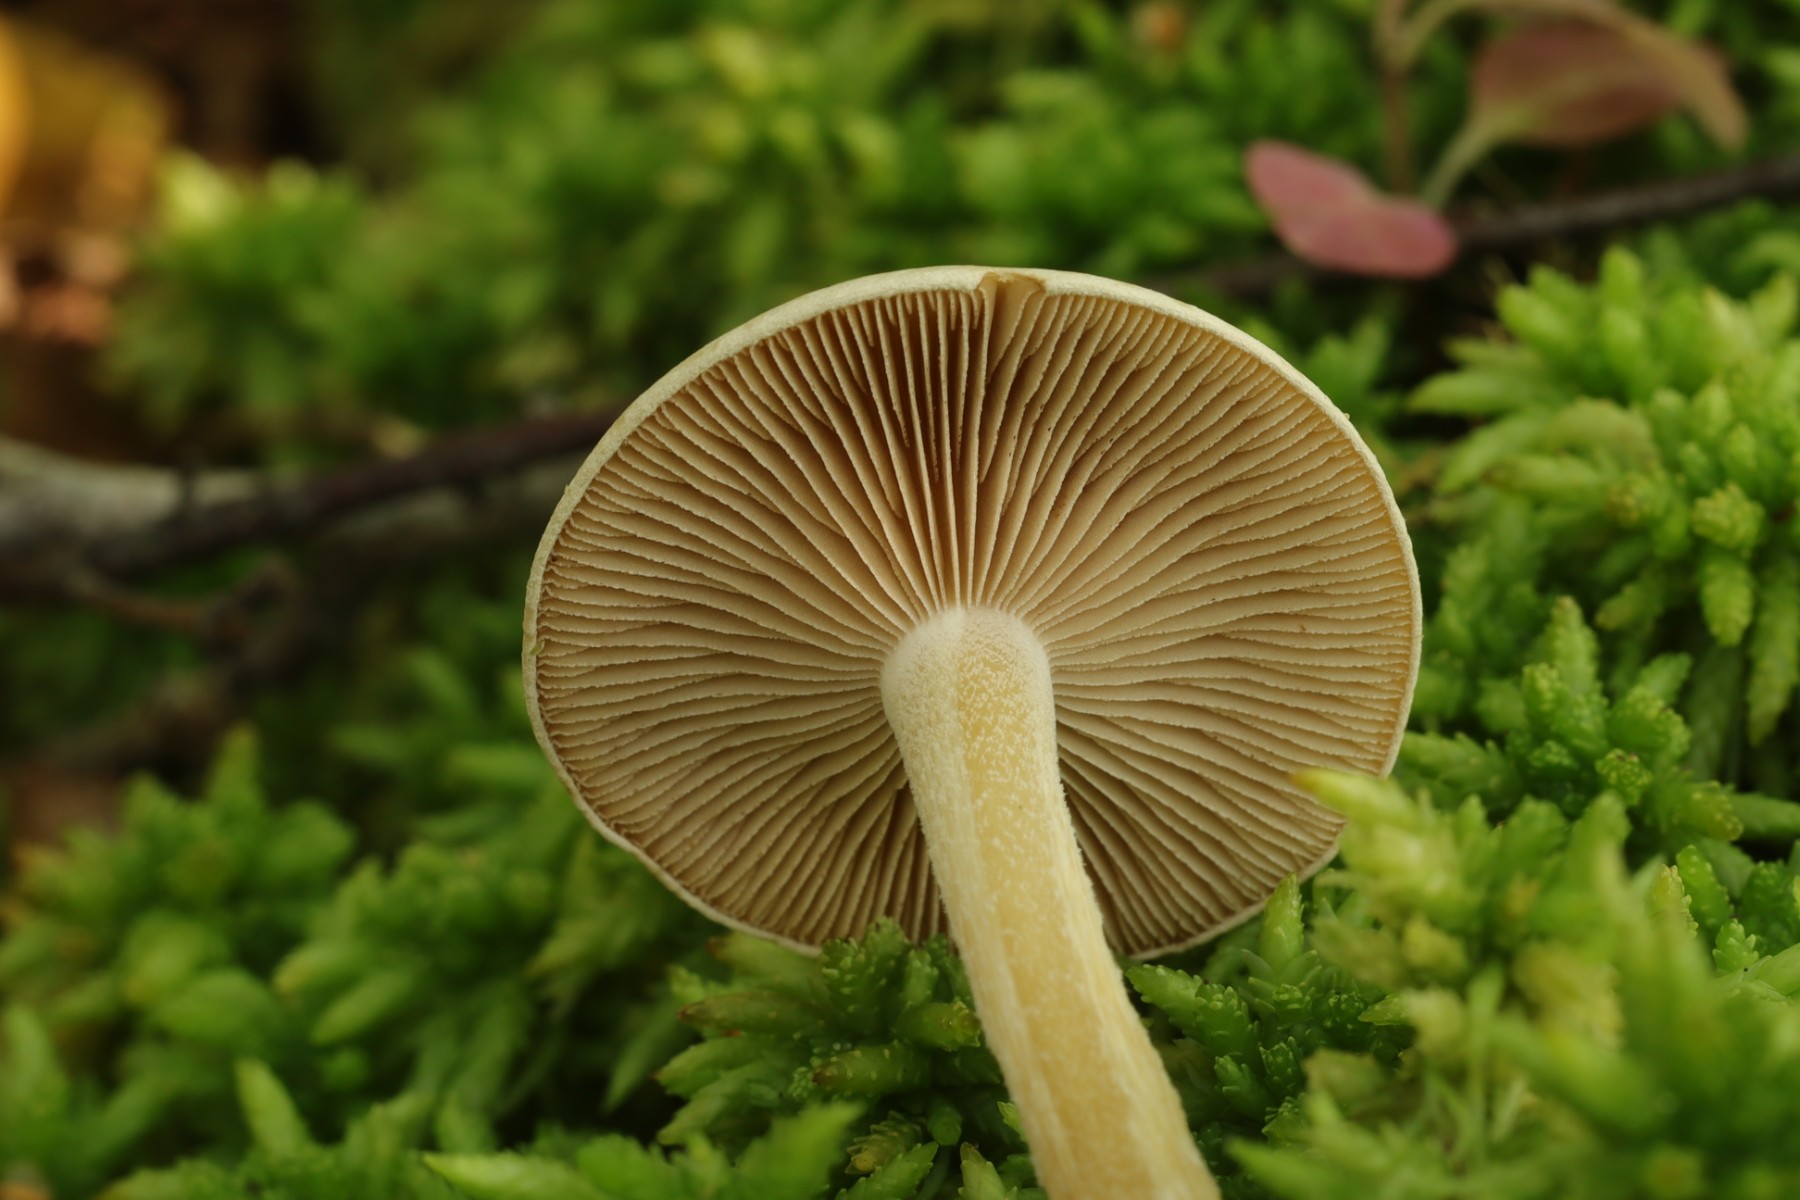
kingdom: Fungi
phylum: Basidiomycota
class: Agaricomycetes
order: Agaricales
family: Hymenogastraceae
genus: Hebeloma
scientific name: Hebeloma
